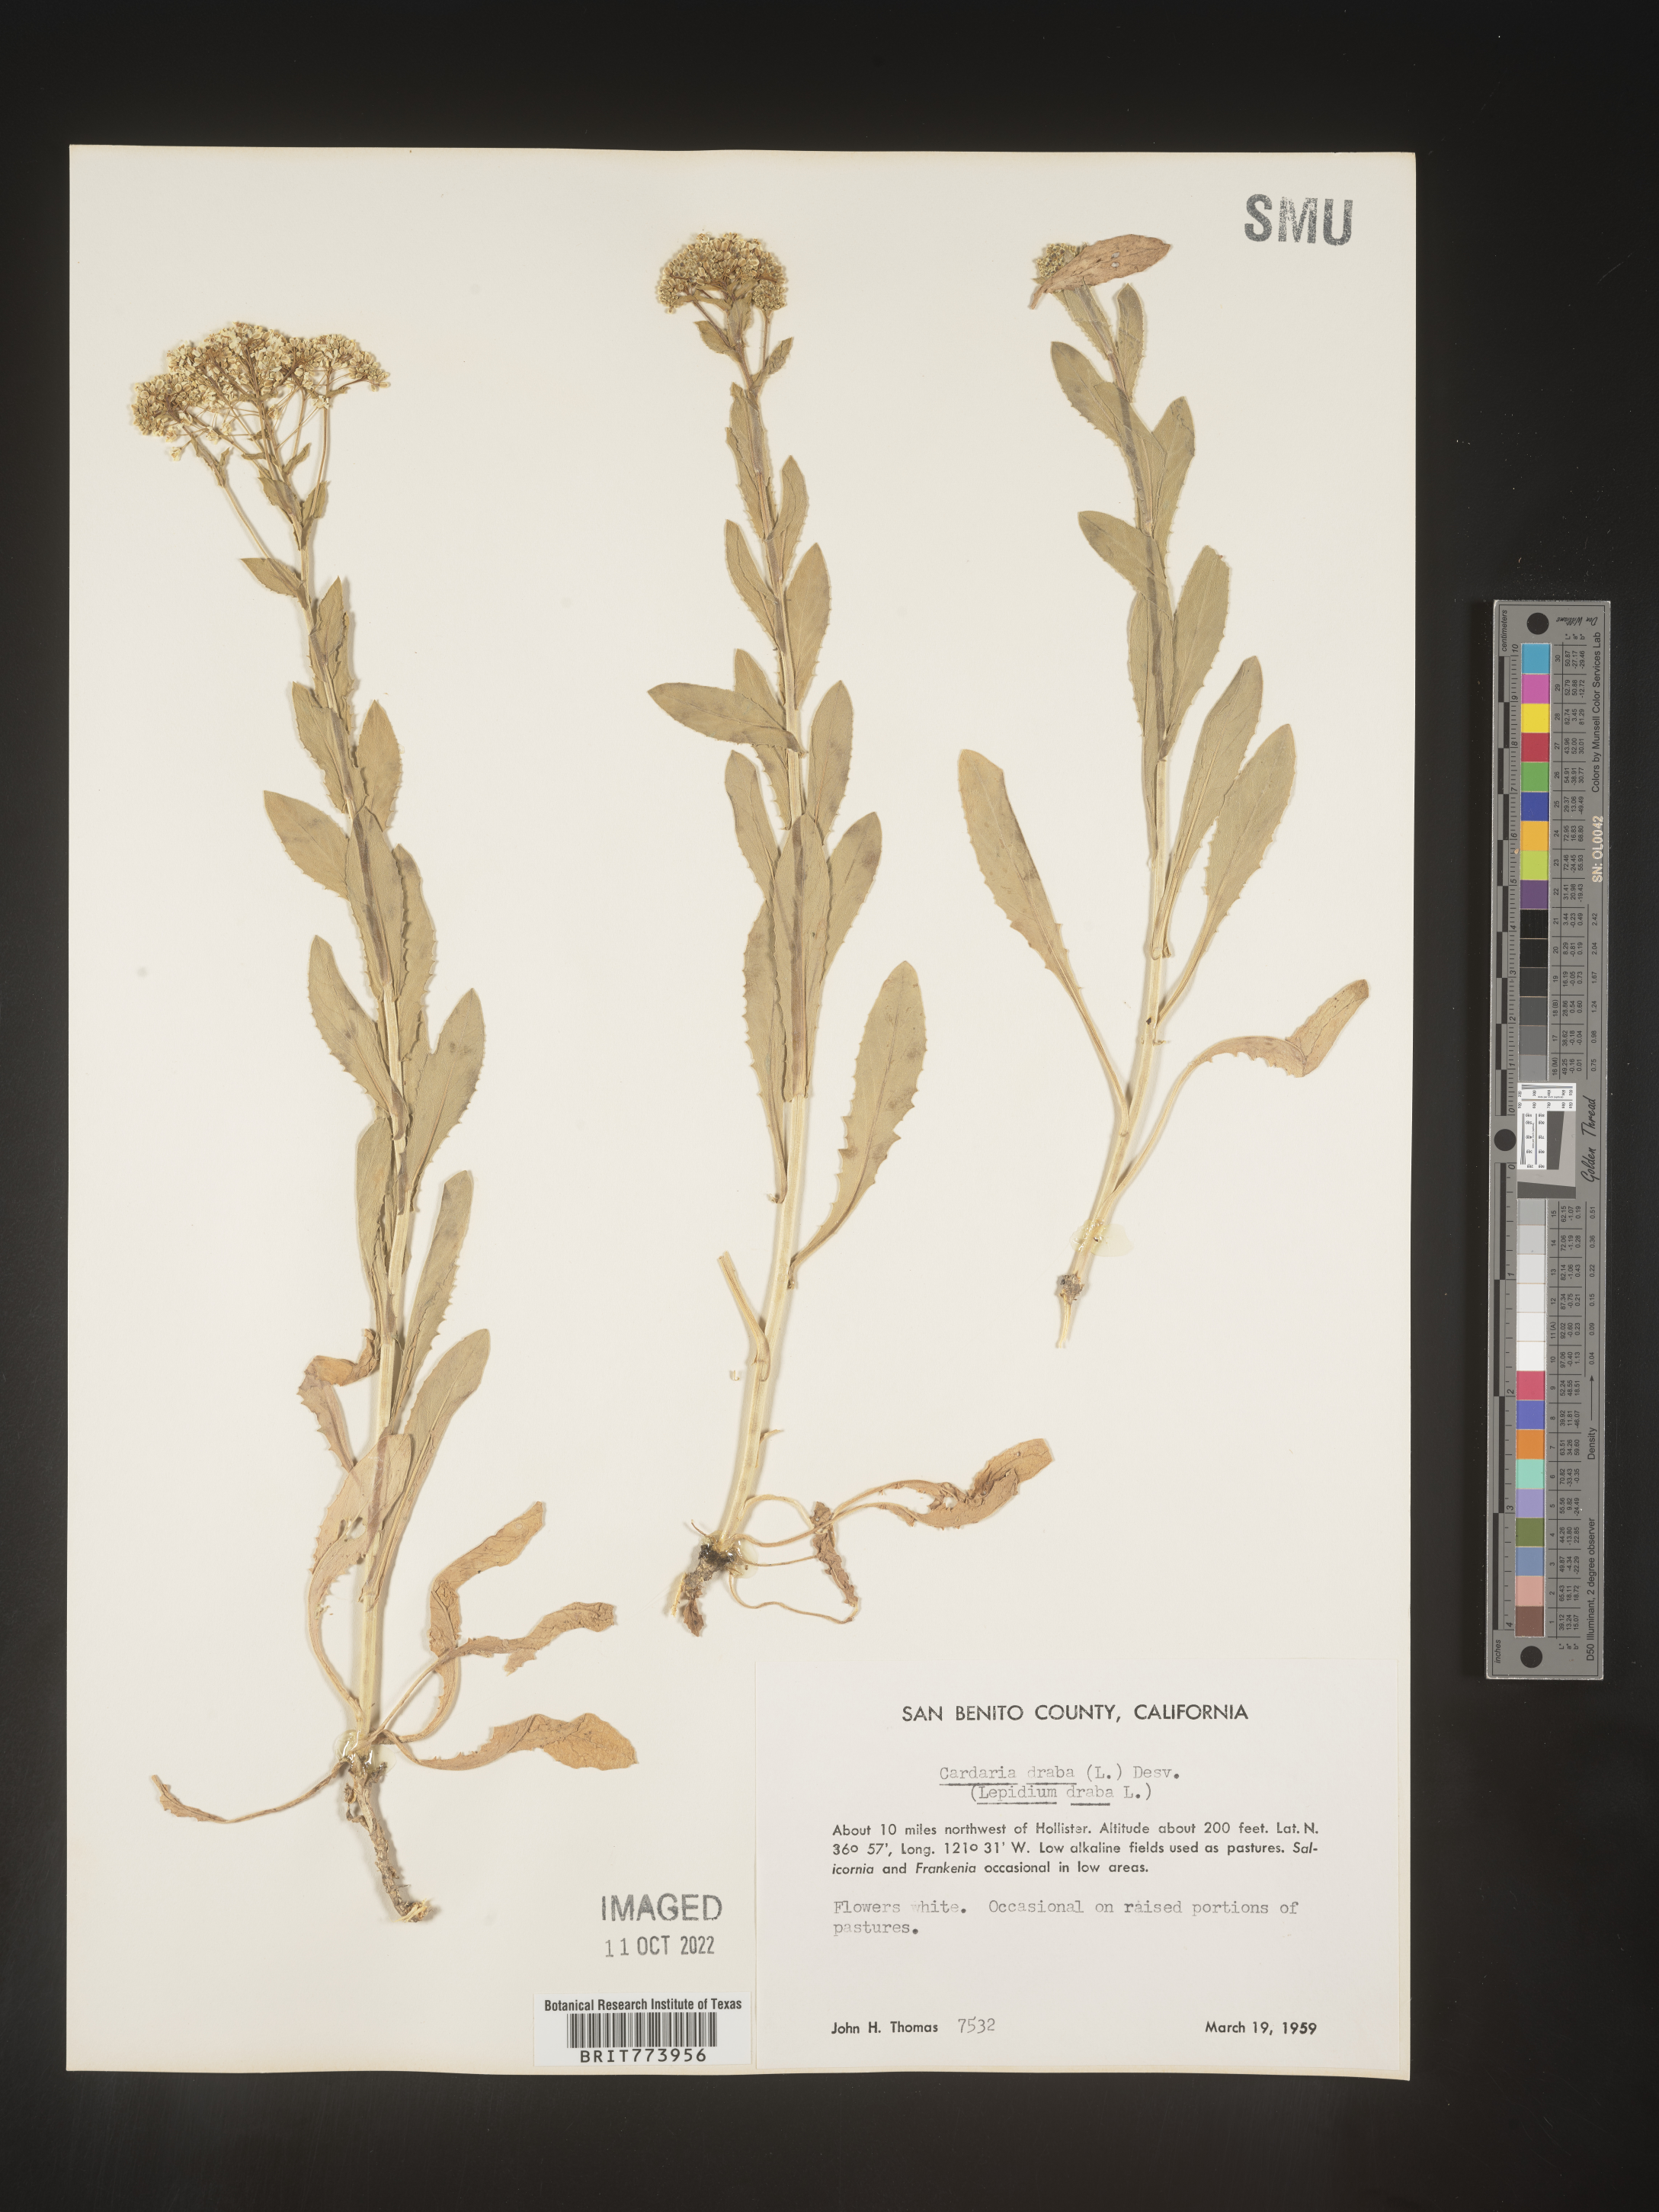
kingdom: Plantae
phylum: Tracheophyta
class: Magnoliopsida
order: Brassicales
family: Brassicaceae
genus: Lepidium
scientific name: Lepidium draba
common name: Hoary cress
